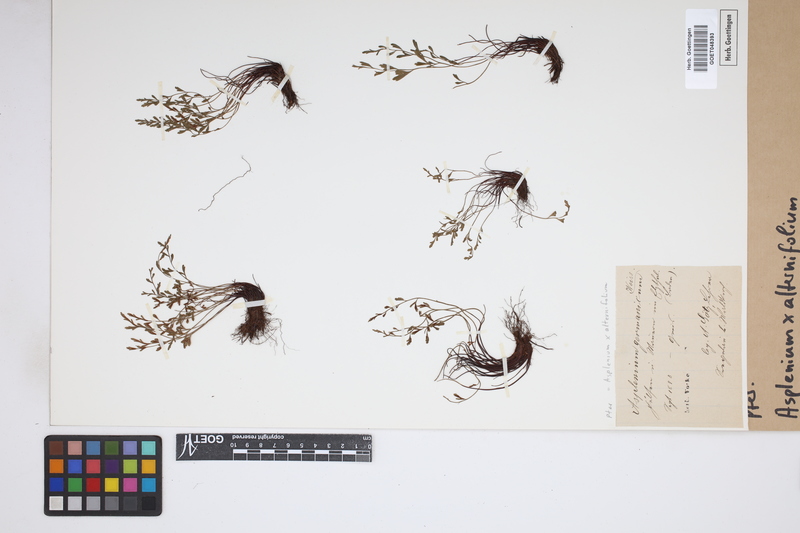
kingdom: Plantae
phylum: Tracheophyta
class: Polypodiopsida
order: Polypodiales
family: Aspleniaceae
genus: Asplenium
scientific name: Asplenium alternifolium
